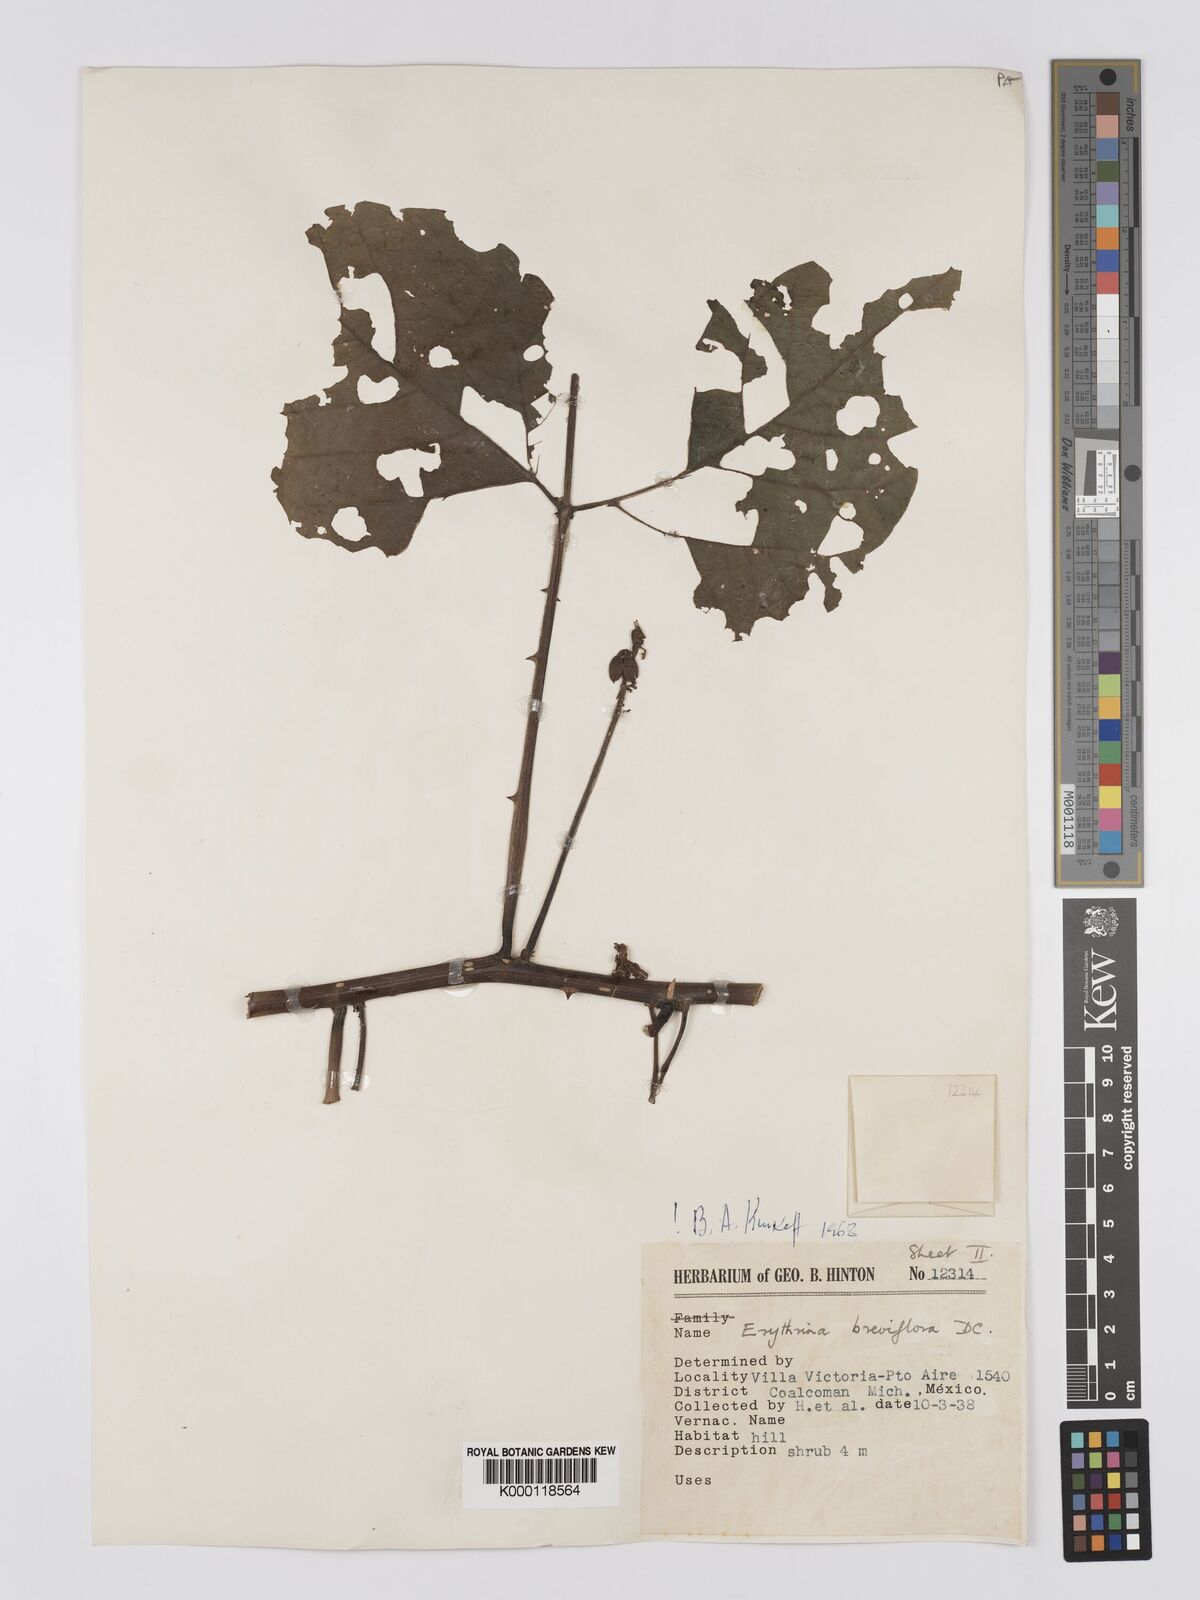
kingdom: Plantae
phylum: Tracheophyta
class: Magnoliopsida
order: Fabales
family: Fabaceae
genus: Erythrina
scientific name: Erythrina breviflora
